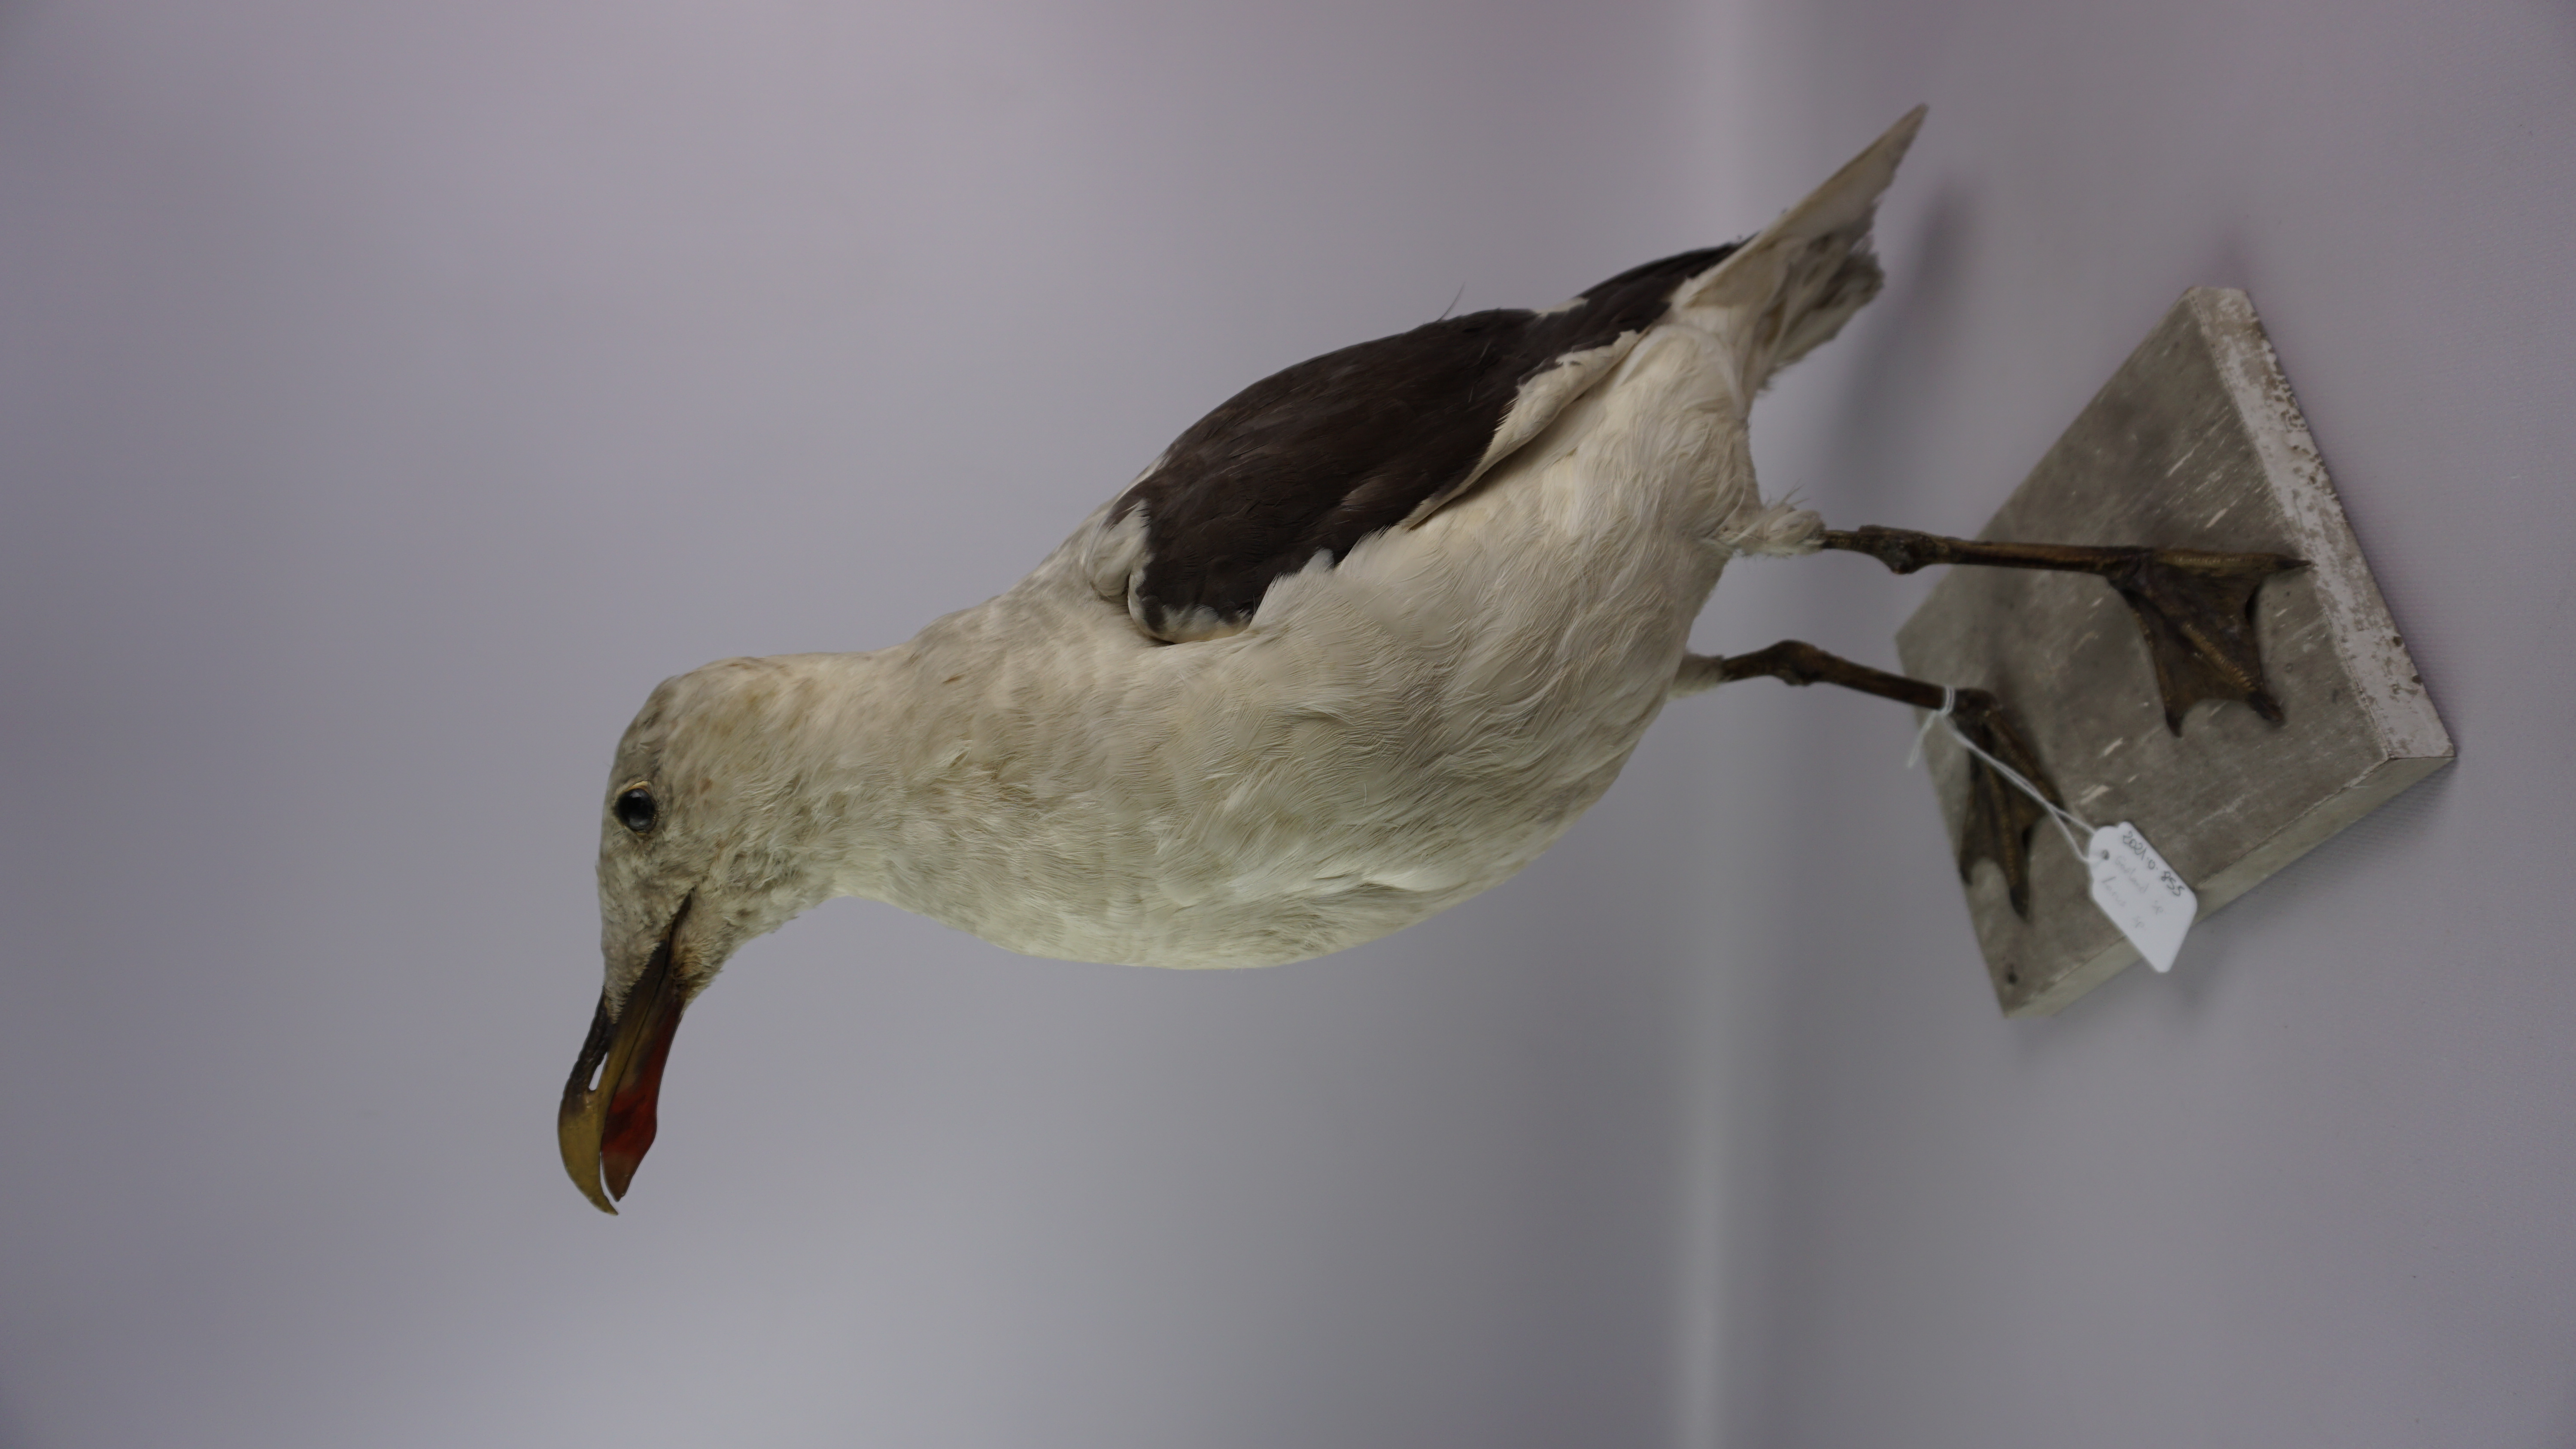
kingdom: Animalia
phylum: Chordata
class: Aves
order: Charadriiformes
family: Laridae
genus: Larus
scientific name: Larus
